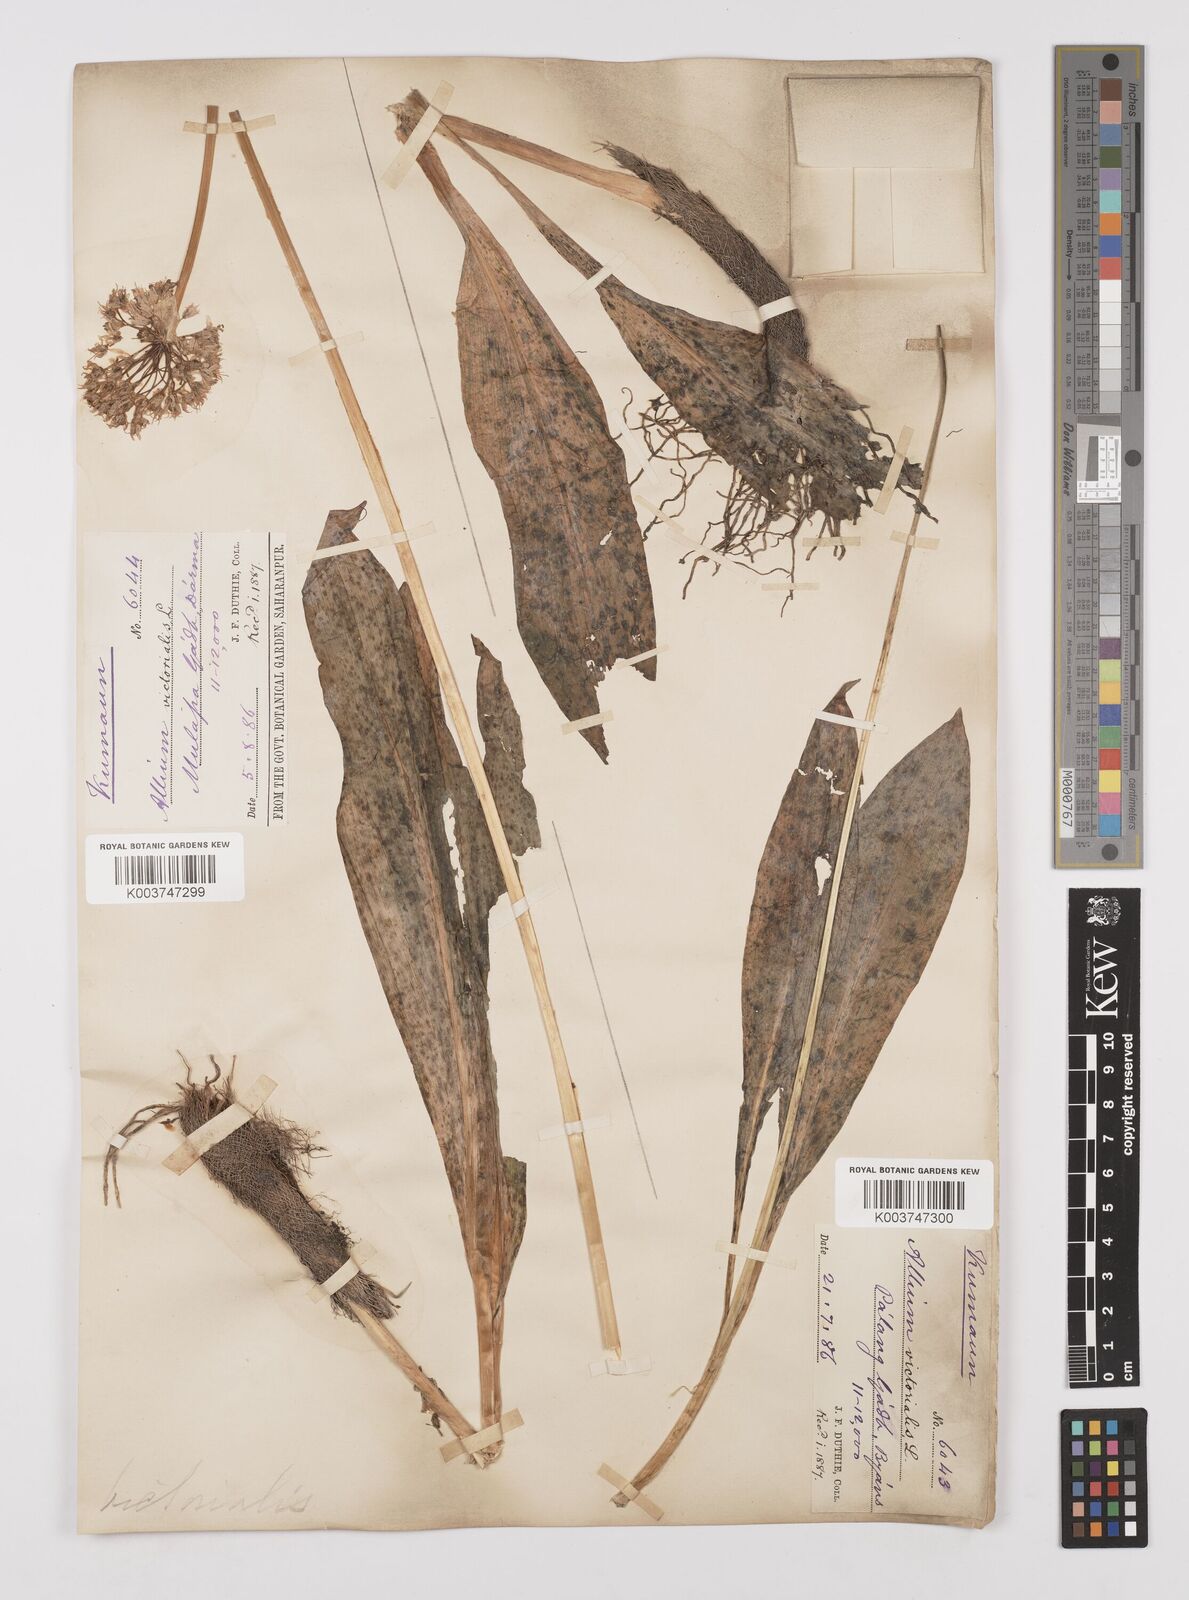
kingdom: Plantae
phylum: Tracheophyta
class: Liliopsida
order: Asparagales
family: Amaryllidaceae
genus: Allium
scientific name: Allium victorialis
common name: Alpine leek
